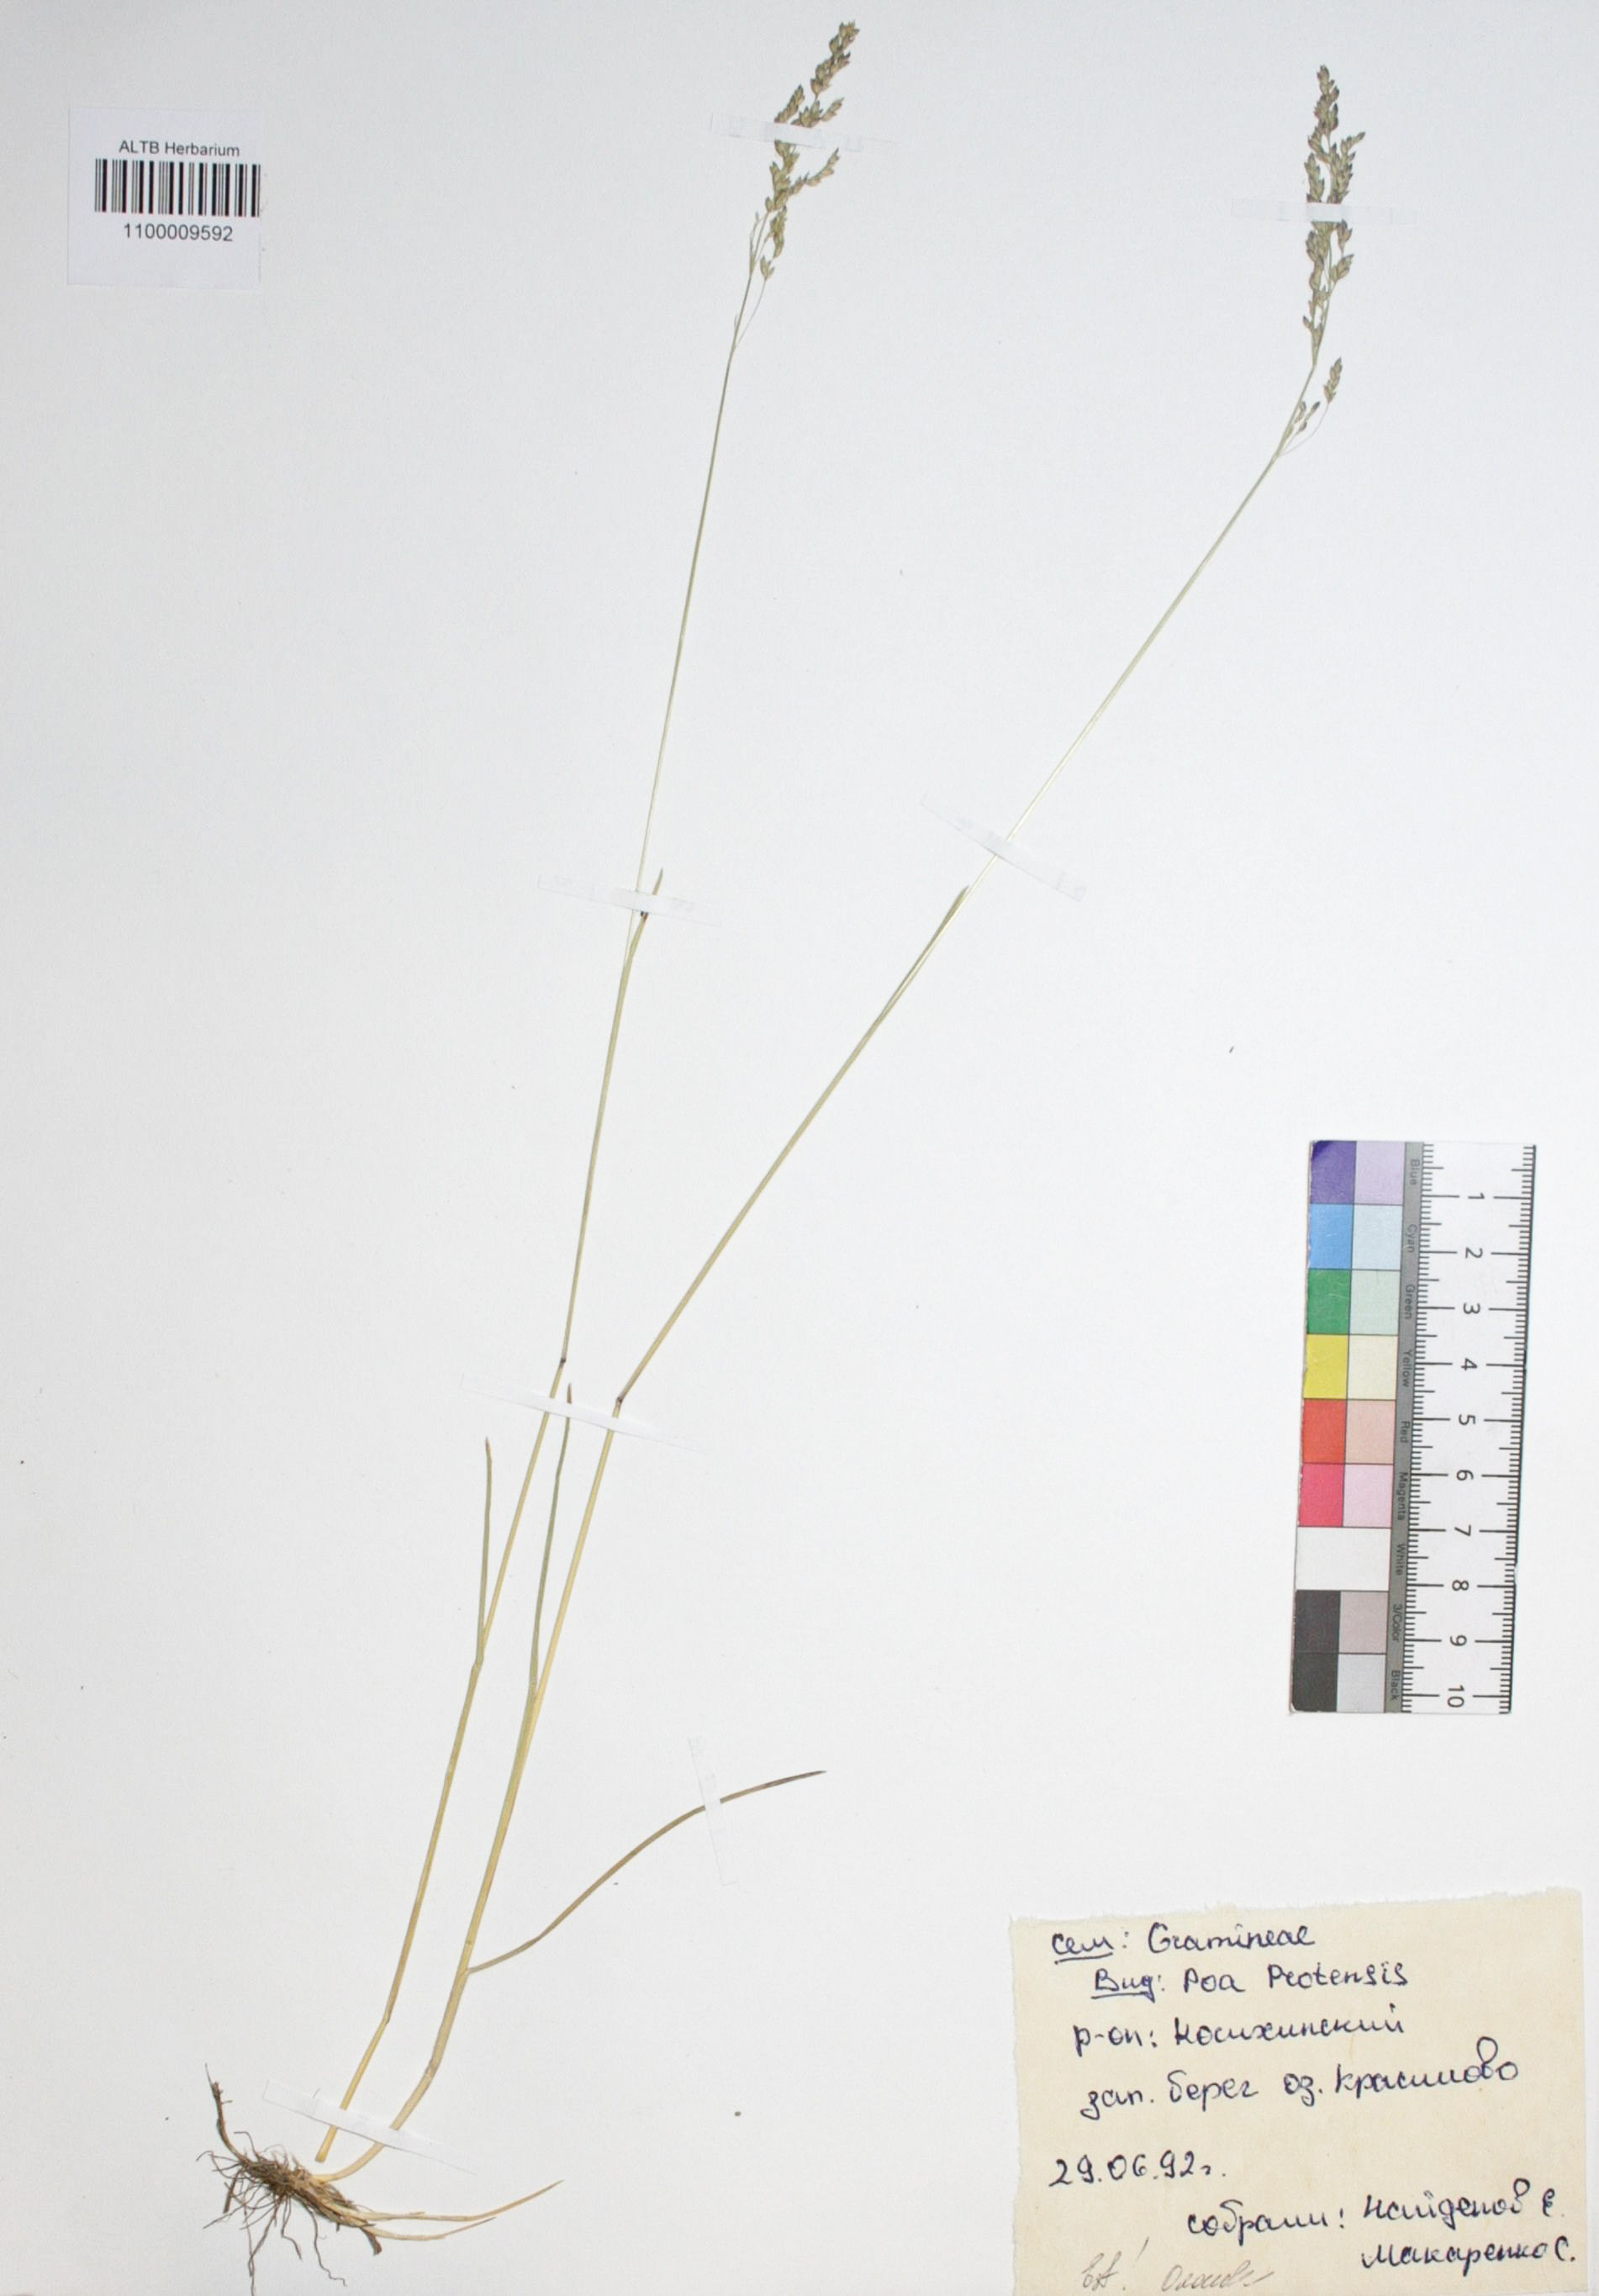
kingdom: Plantae
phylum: Tracheophyta
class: Liliopsida
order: Poales
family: Poaceae
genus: Poa
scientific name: Poa pratensis
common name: Kentucky bluegrass
